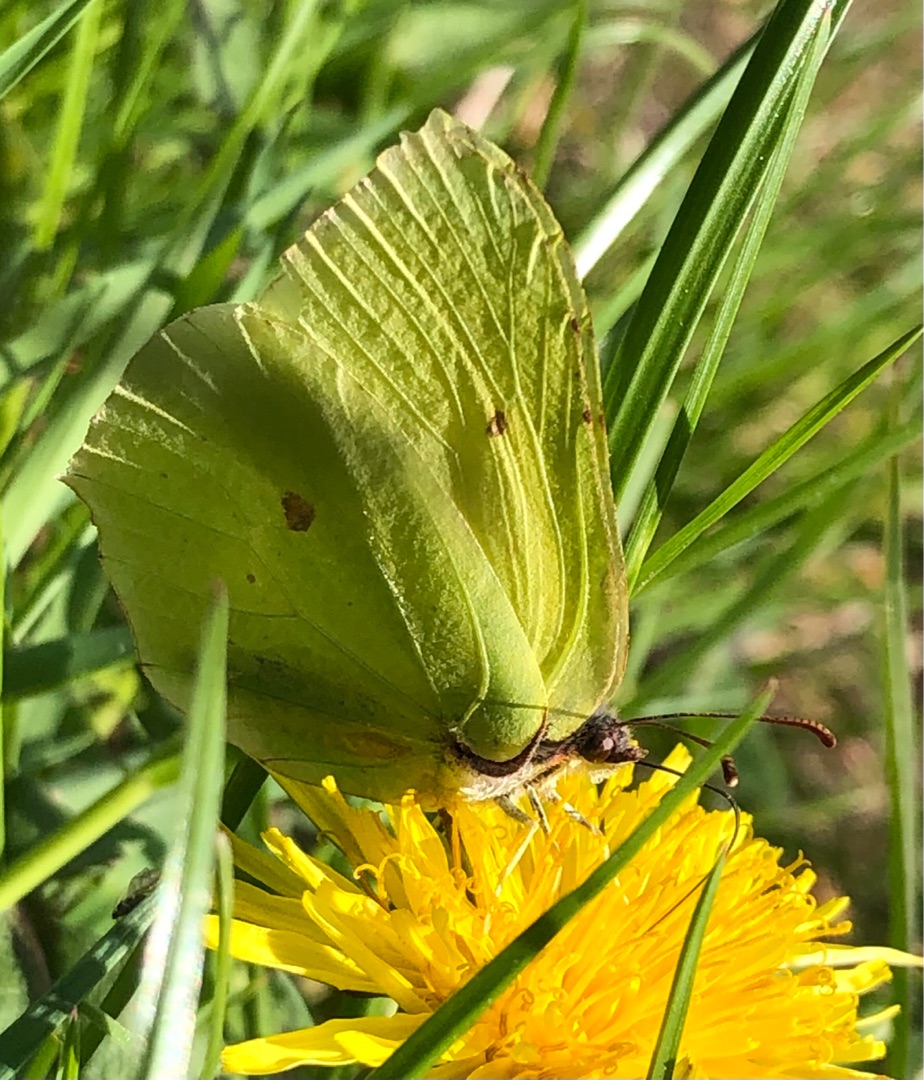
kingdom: Animalia
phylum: Arthropoda
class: Insecta
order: Lepidoptera
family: Pieridae
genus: Gonepteryx
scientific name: Gonepteryx rhamni
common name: Citronsommerfugl
